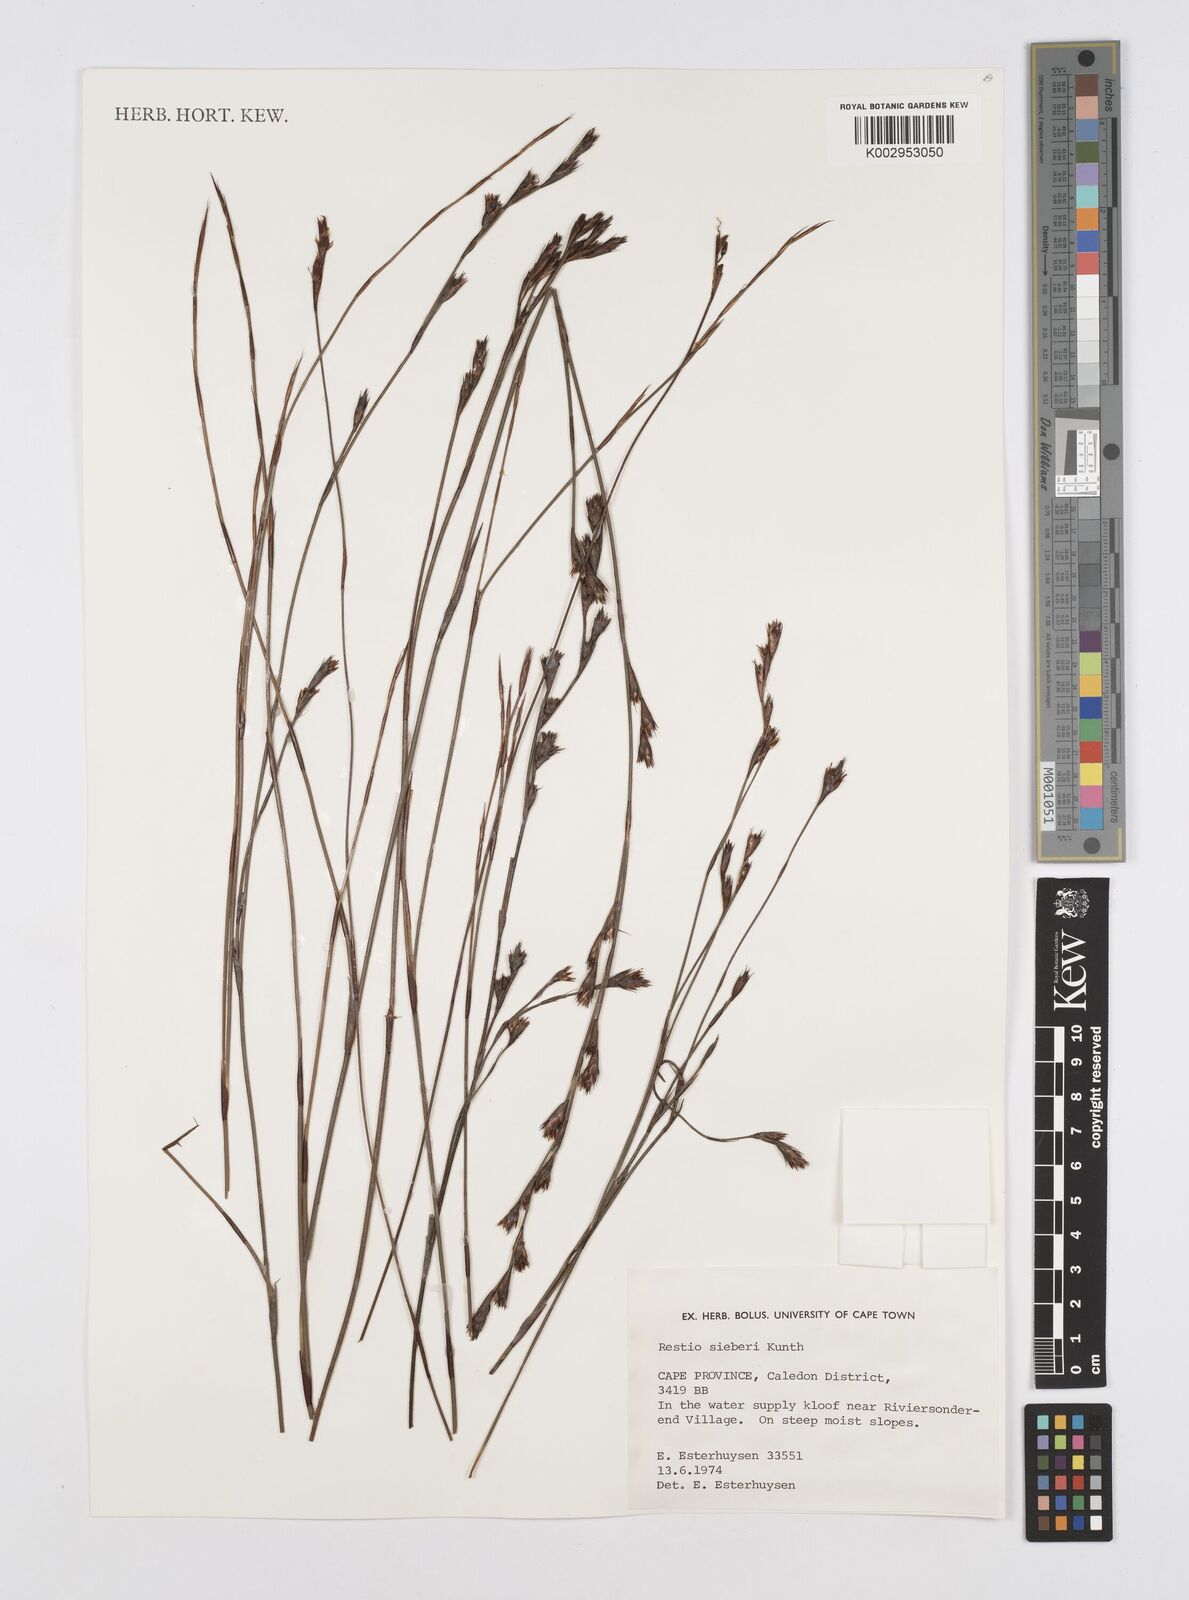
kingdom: Plantae
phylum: Tracheophyta
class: Liliopsida
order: Poales
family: Restionaceae
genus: Restio
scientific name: Restio sieberi
